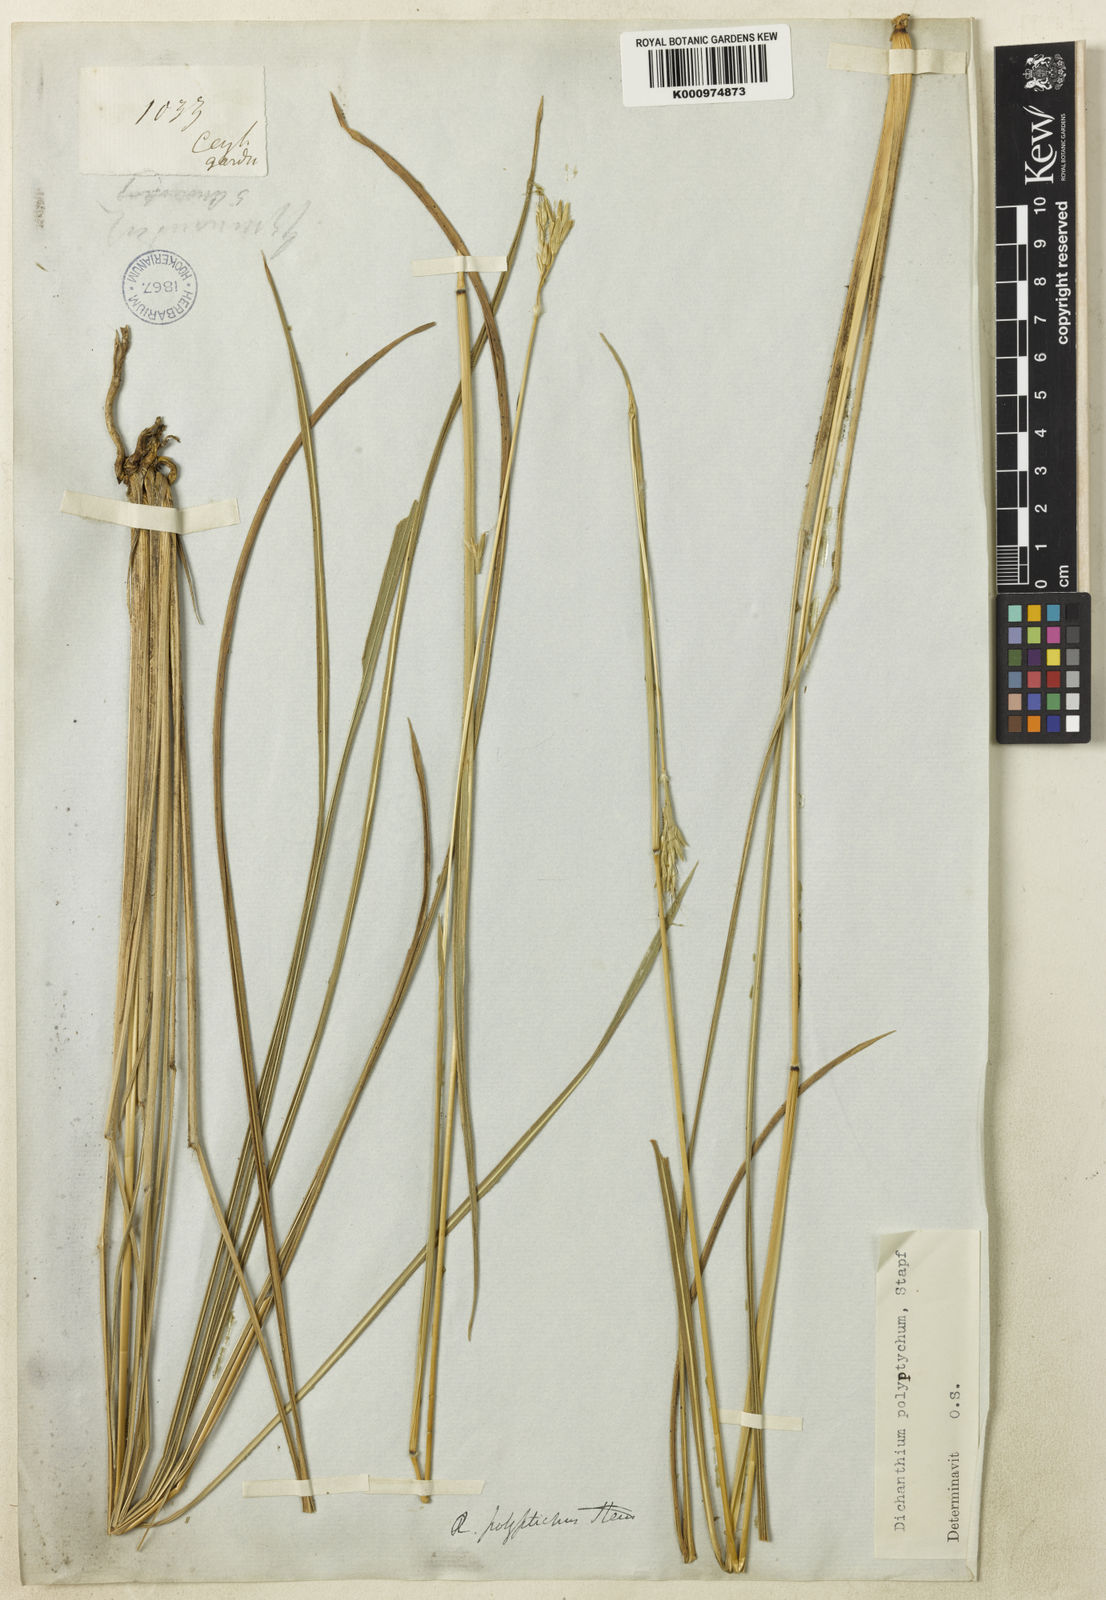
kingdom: Plantae
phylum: Tracheophyta
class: Liliopsida
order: Poales
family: Poaceae
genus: Andropogon
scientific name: Andropogon polyptychos
